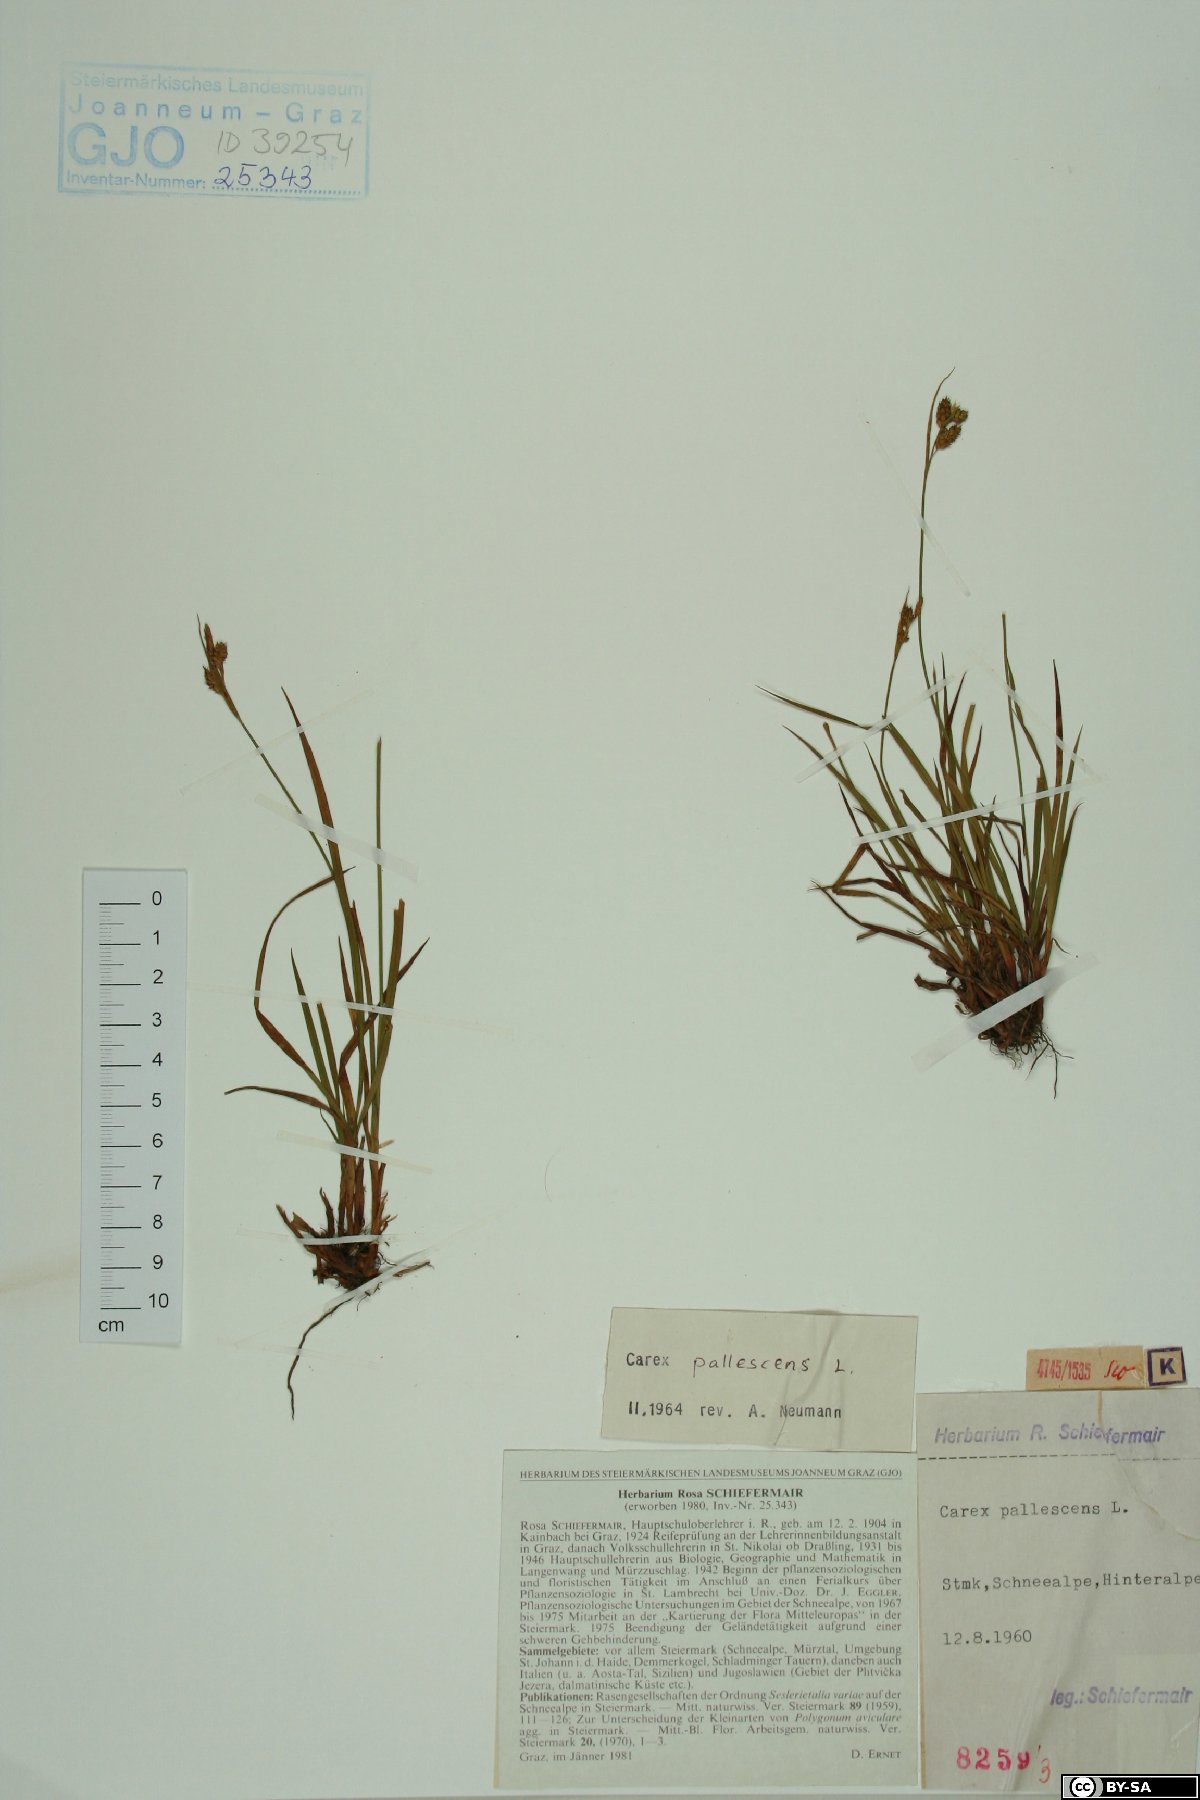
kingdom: Plantae
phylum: Tracheophyta
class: Liliopsida
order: Poales
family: Cyperaceae
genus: Carex
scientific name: Carex pallescens
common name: Pale sedge
